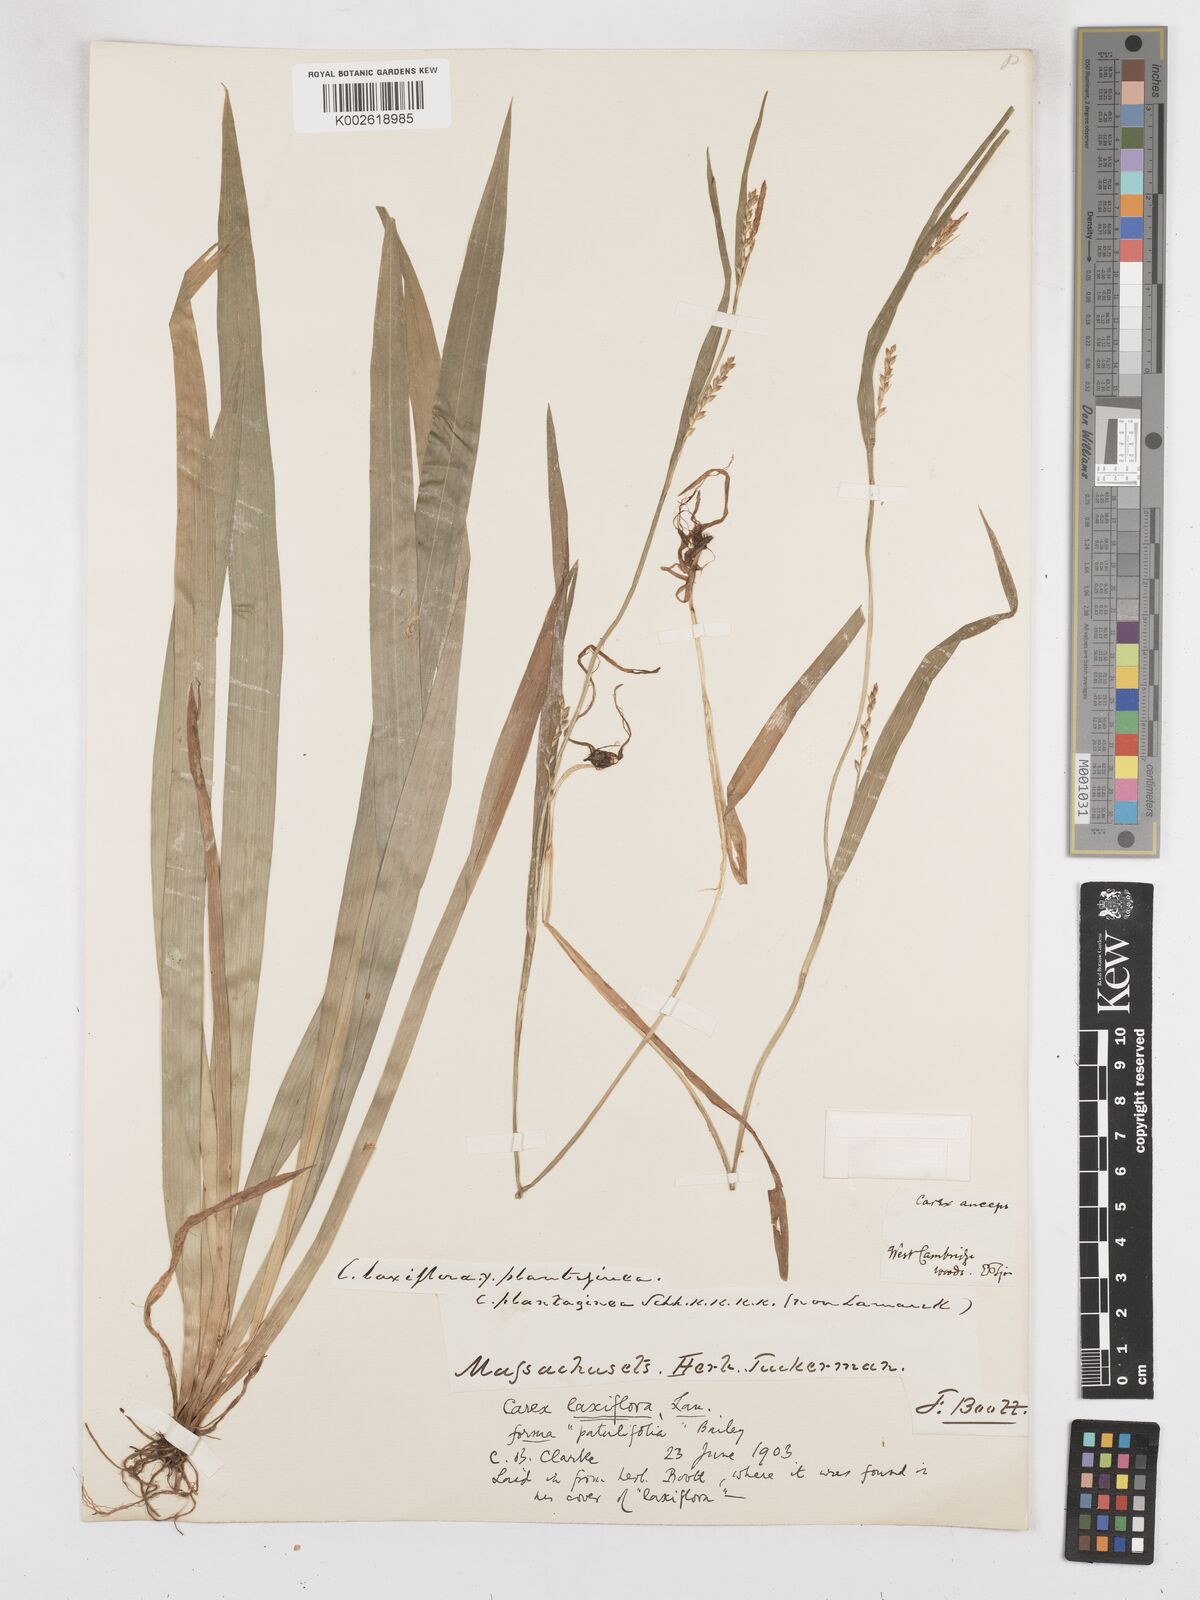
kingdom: Plantae
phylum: Tracheophyta
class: Liliopsida
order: Poales
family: Cyperaceae
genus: Carex
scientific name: Carex striatula
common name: Lined sedge
